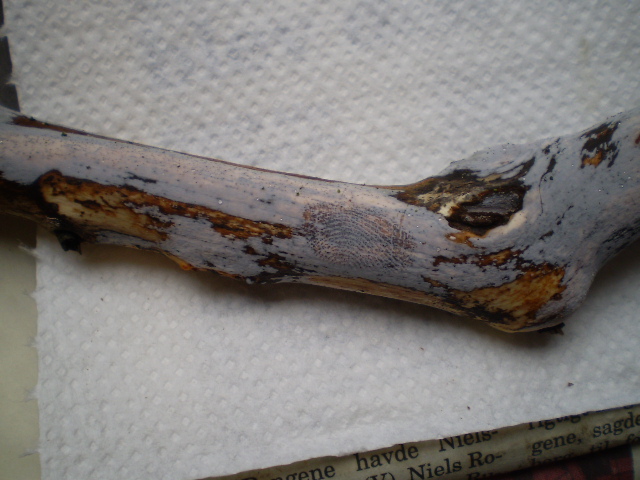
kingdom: Fungi
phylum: Basidiomycota
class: Tremellomycetes
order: Tremellales
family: Exidiaceae
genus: Exidiopsis
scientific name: Exidiopsis effusa
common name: smuk bævrehinde
